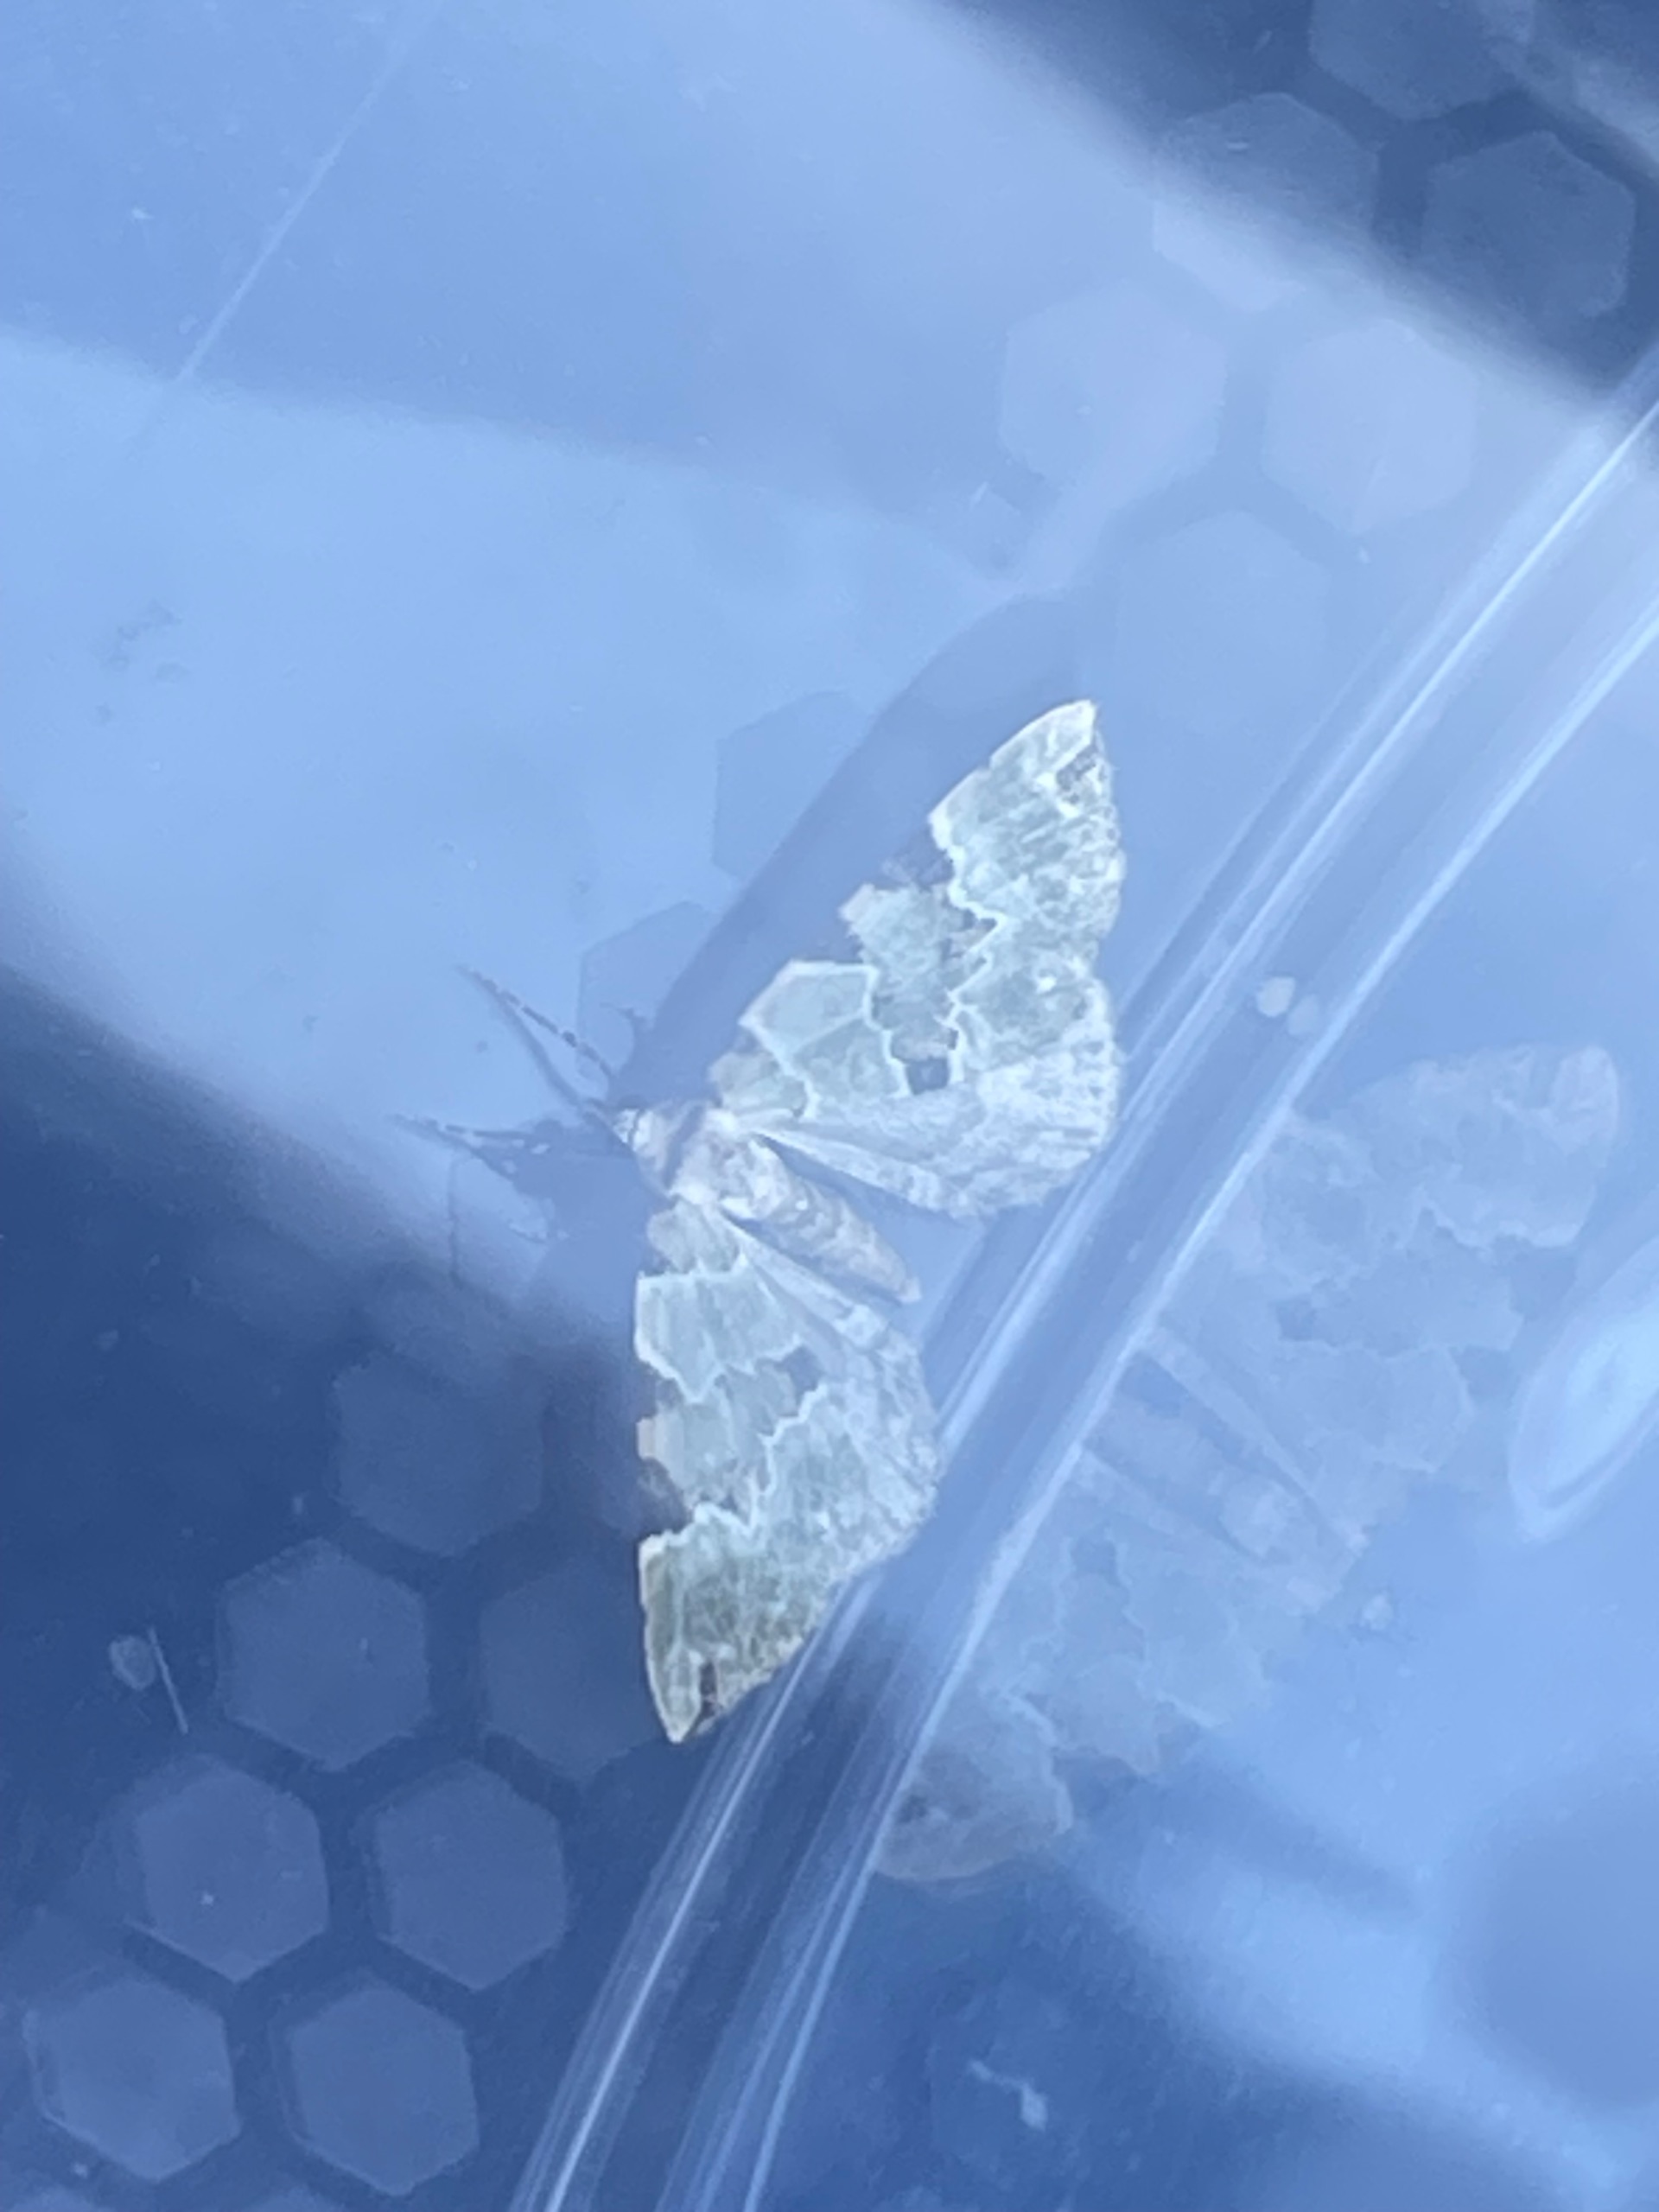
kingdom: Animalia
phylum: Arthropoda
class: Insecta
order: Lepidoptera
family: Geometridae
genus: Colostygia
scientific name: Colostygia pectinataria
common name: Grøn bladmåler
